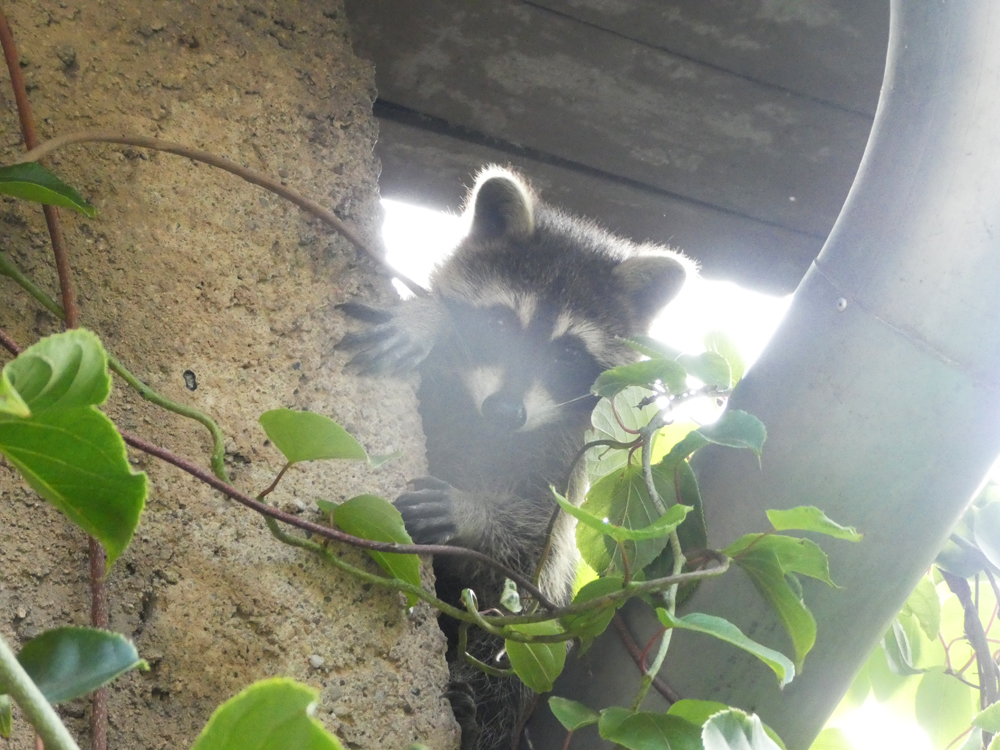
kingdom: Animalia
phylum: Chordata
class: Mammalia
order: Carnivora
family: Procyonidae
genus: Procyon
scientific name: Procyon lotor
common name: Raccoon
